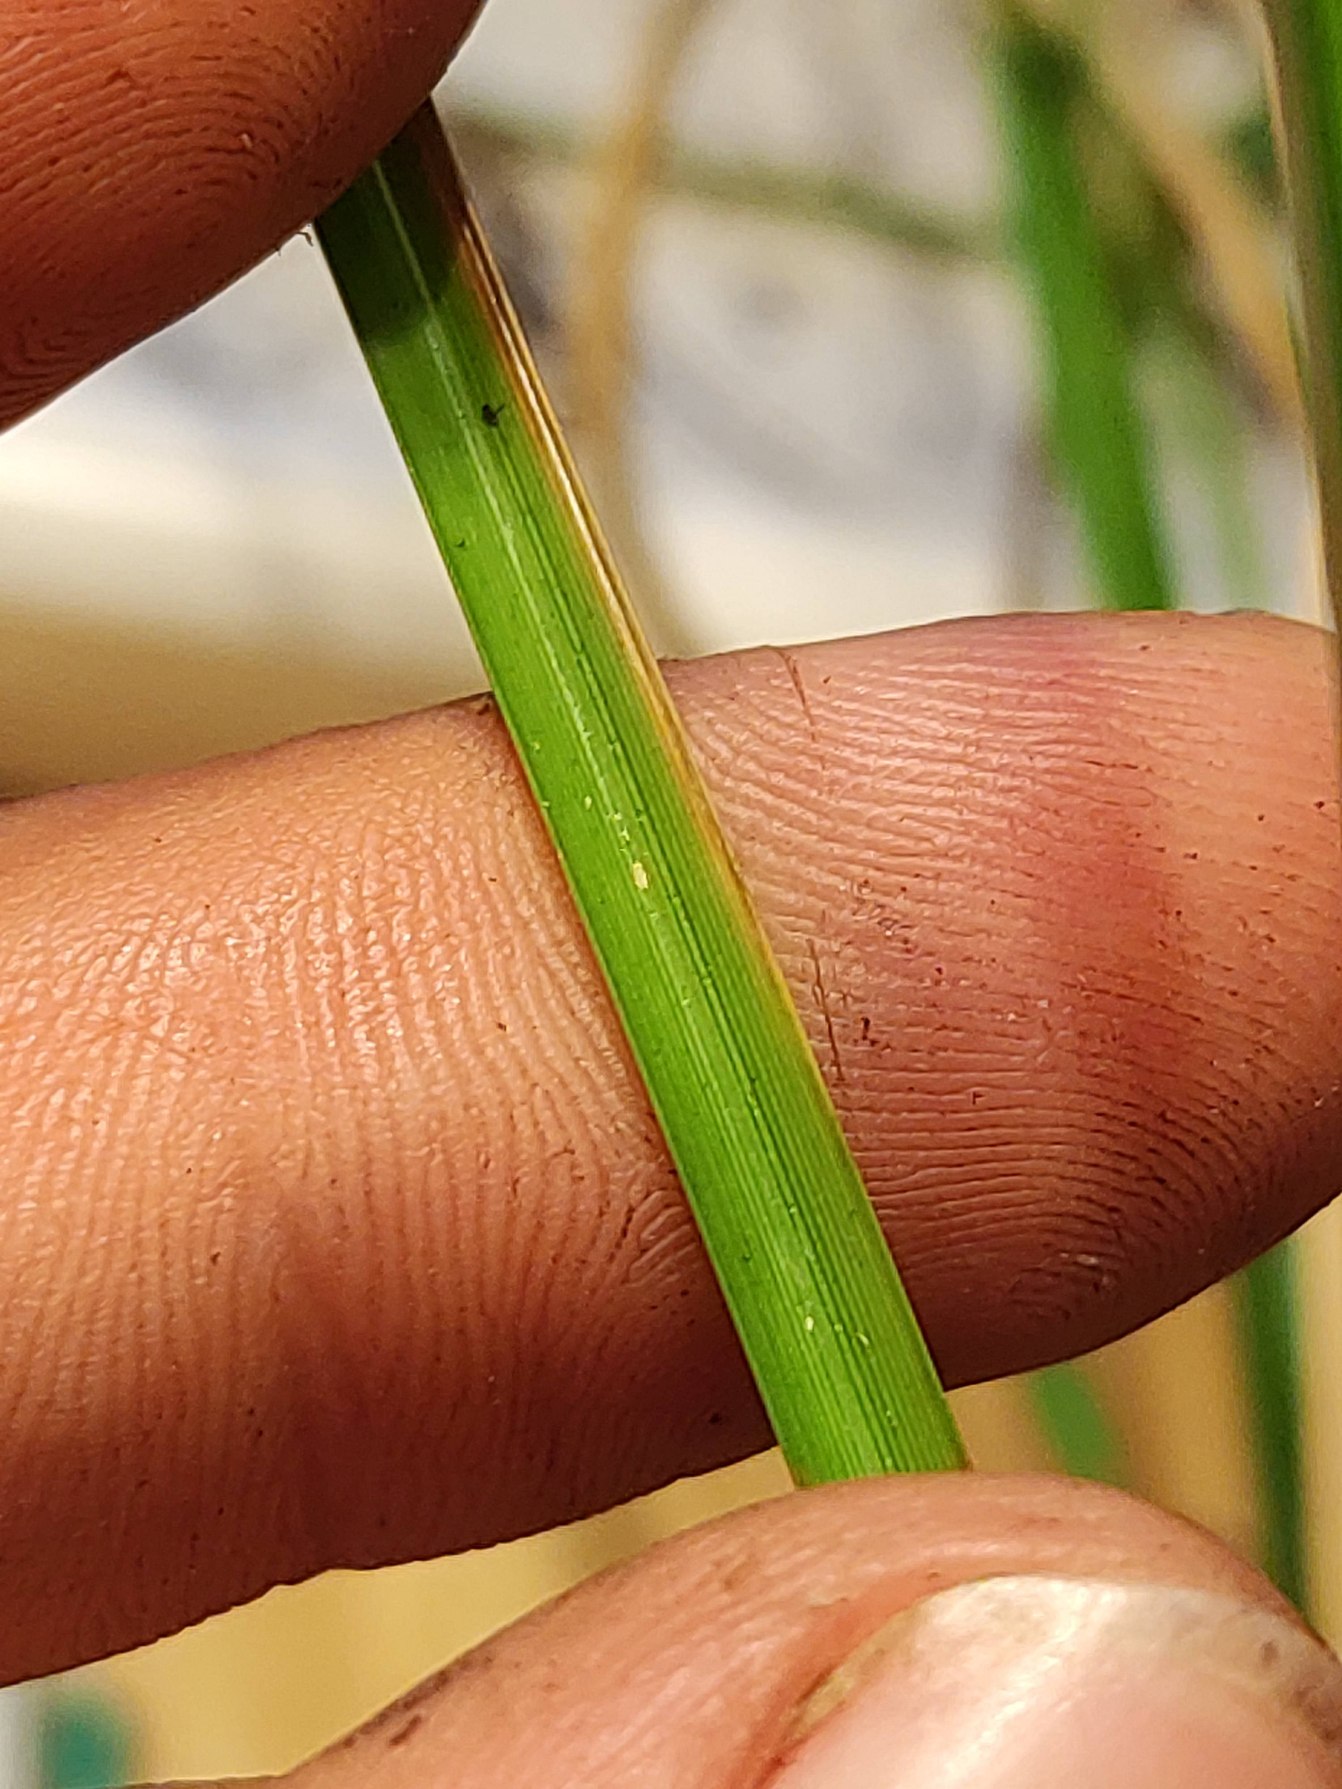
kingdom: Plantae
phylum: Tracheophyta
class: Liliopsida
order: Poales
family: Cyperaceae
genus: Carex
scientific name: Carex paniculata
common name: Top-star
